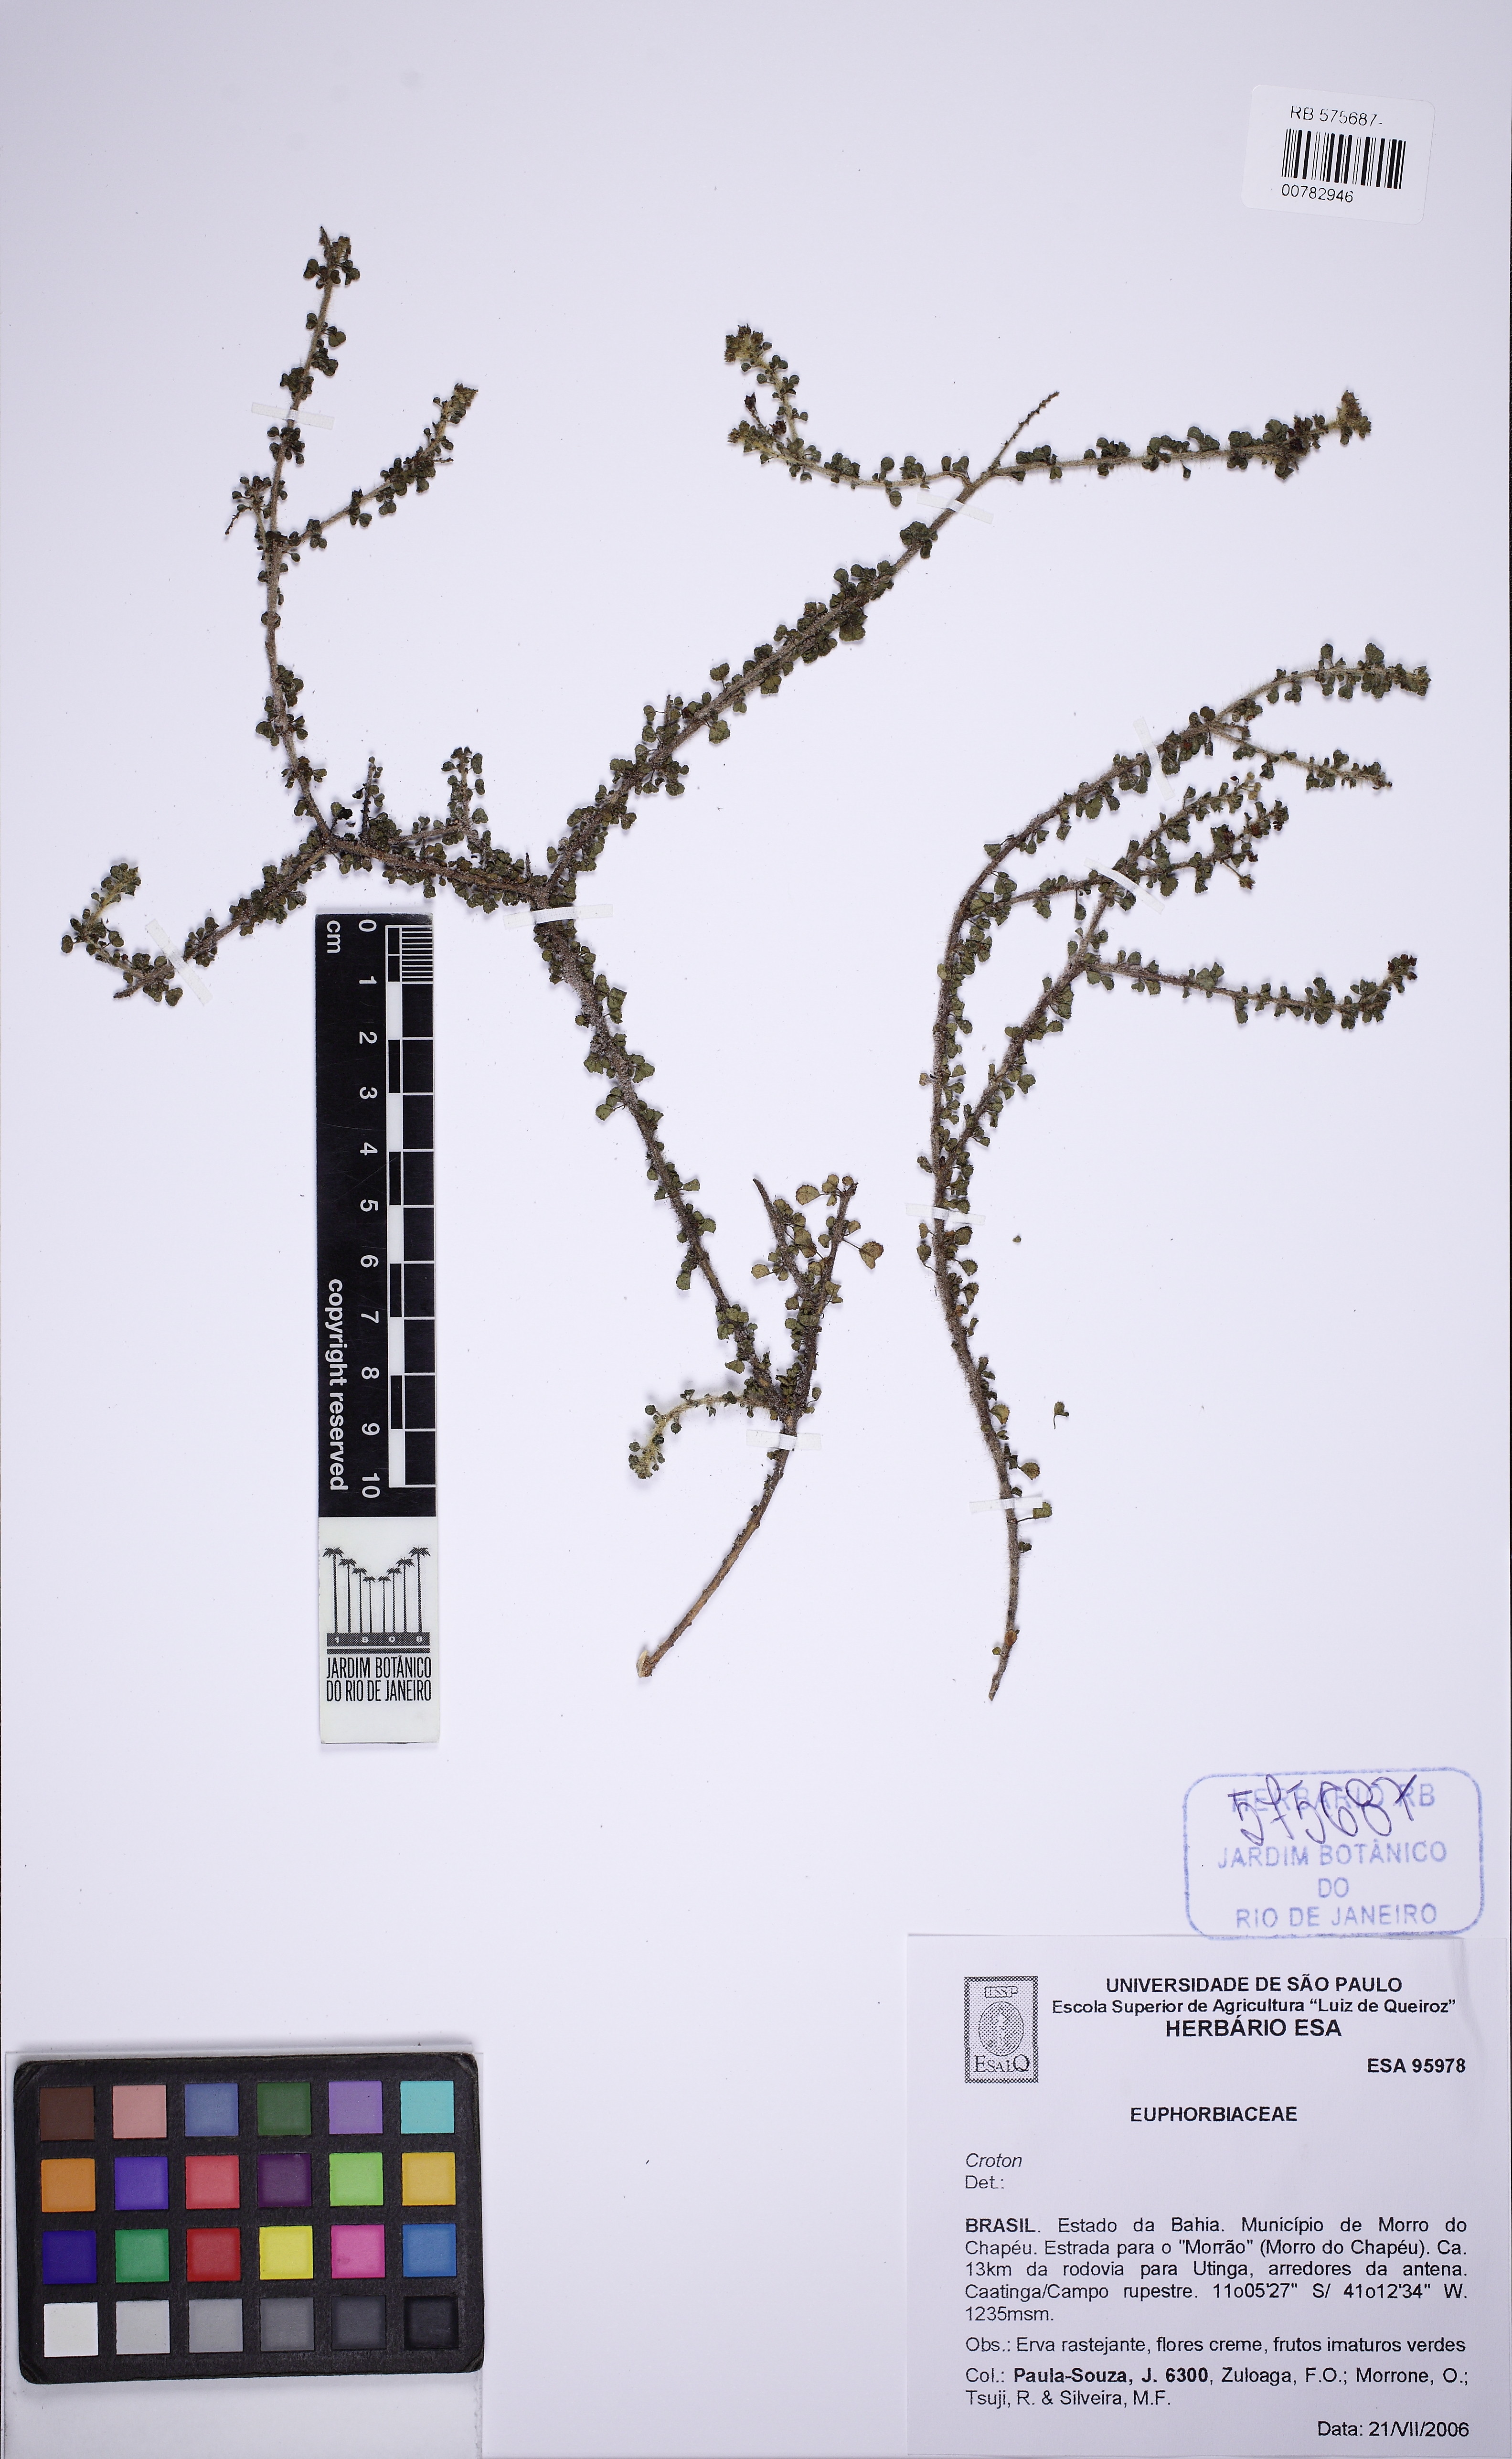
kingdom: Plantae
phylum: Tracheophyta
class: Magnoliopsida
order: Malpighiales
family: Euphorbiaceae
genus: Croton
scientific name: Croton nummularius
